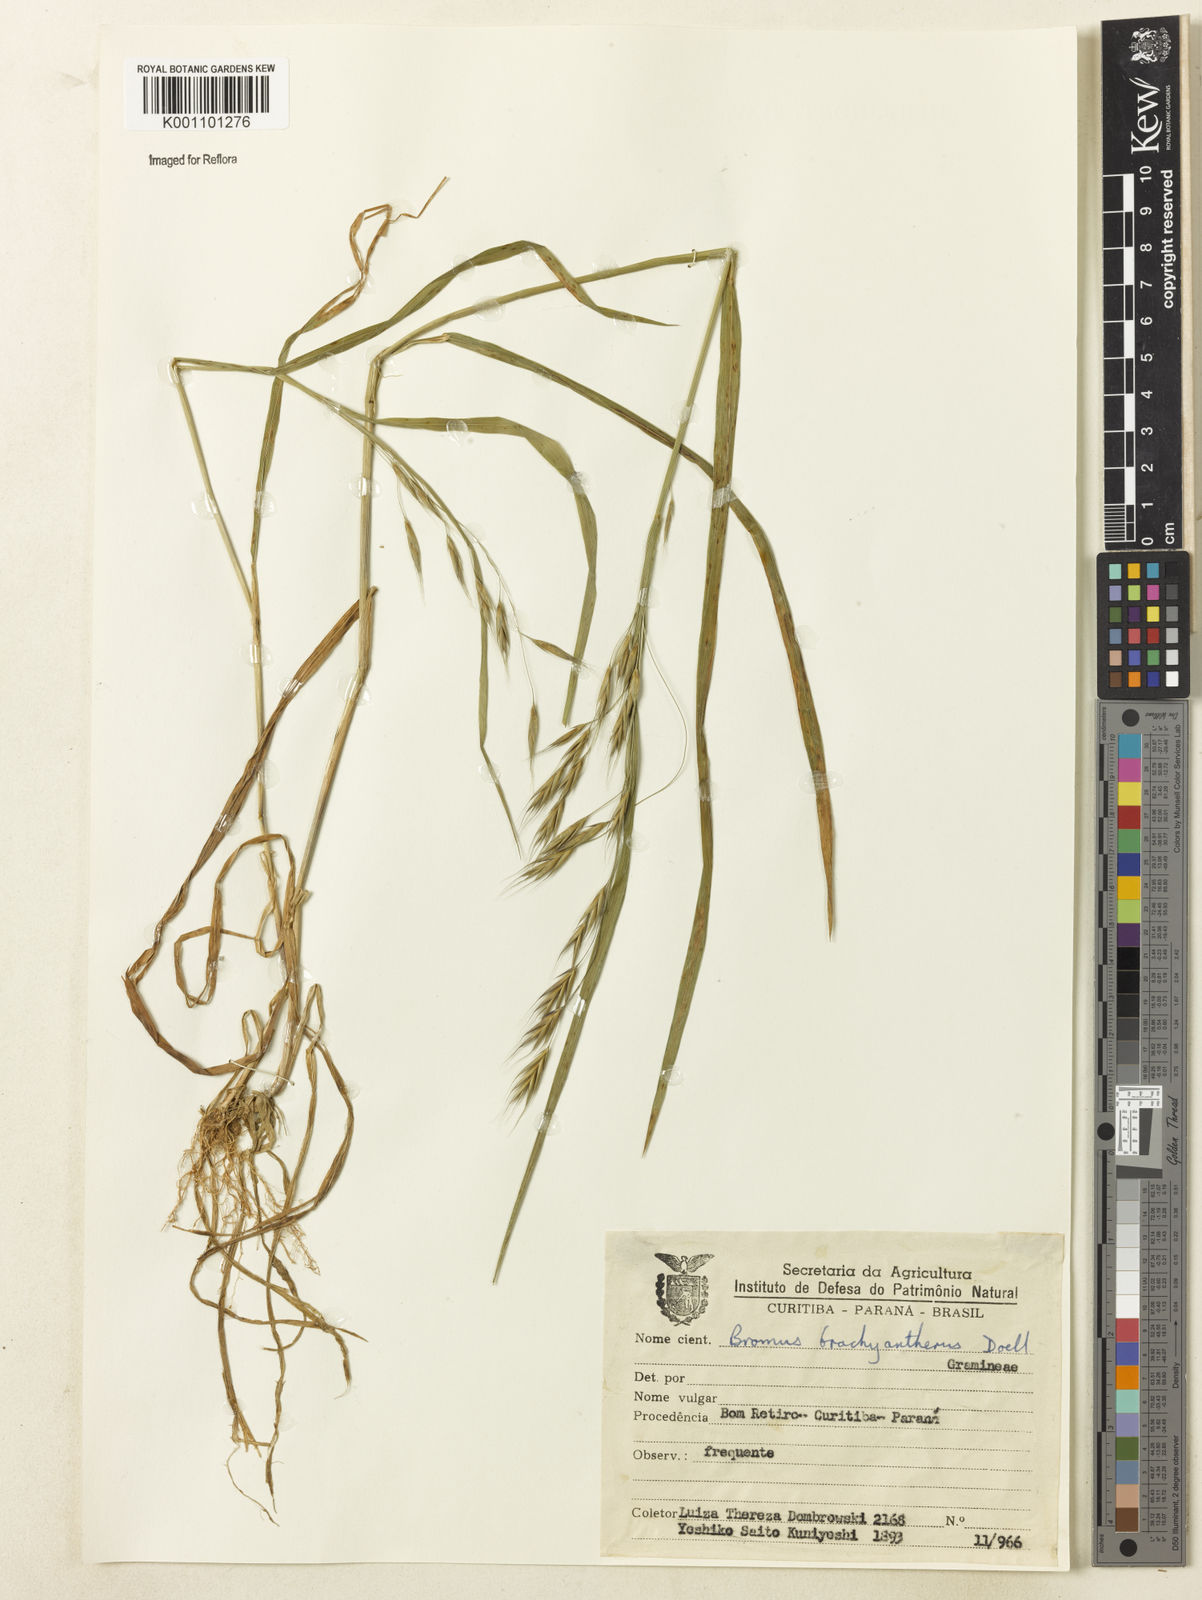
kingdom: Plantae
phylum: Tracheophyta
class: Liliopsida
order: Poales
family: Poaceae
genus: Bromus
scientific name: Bromus
